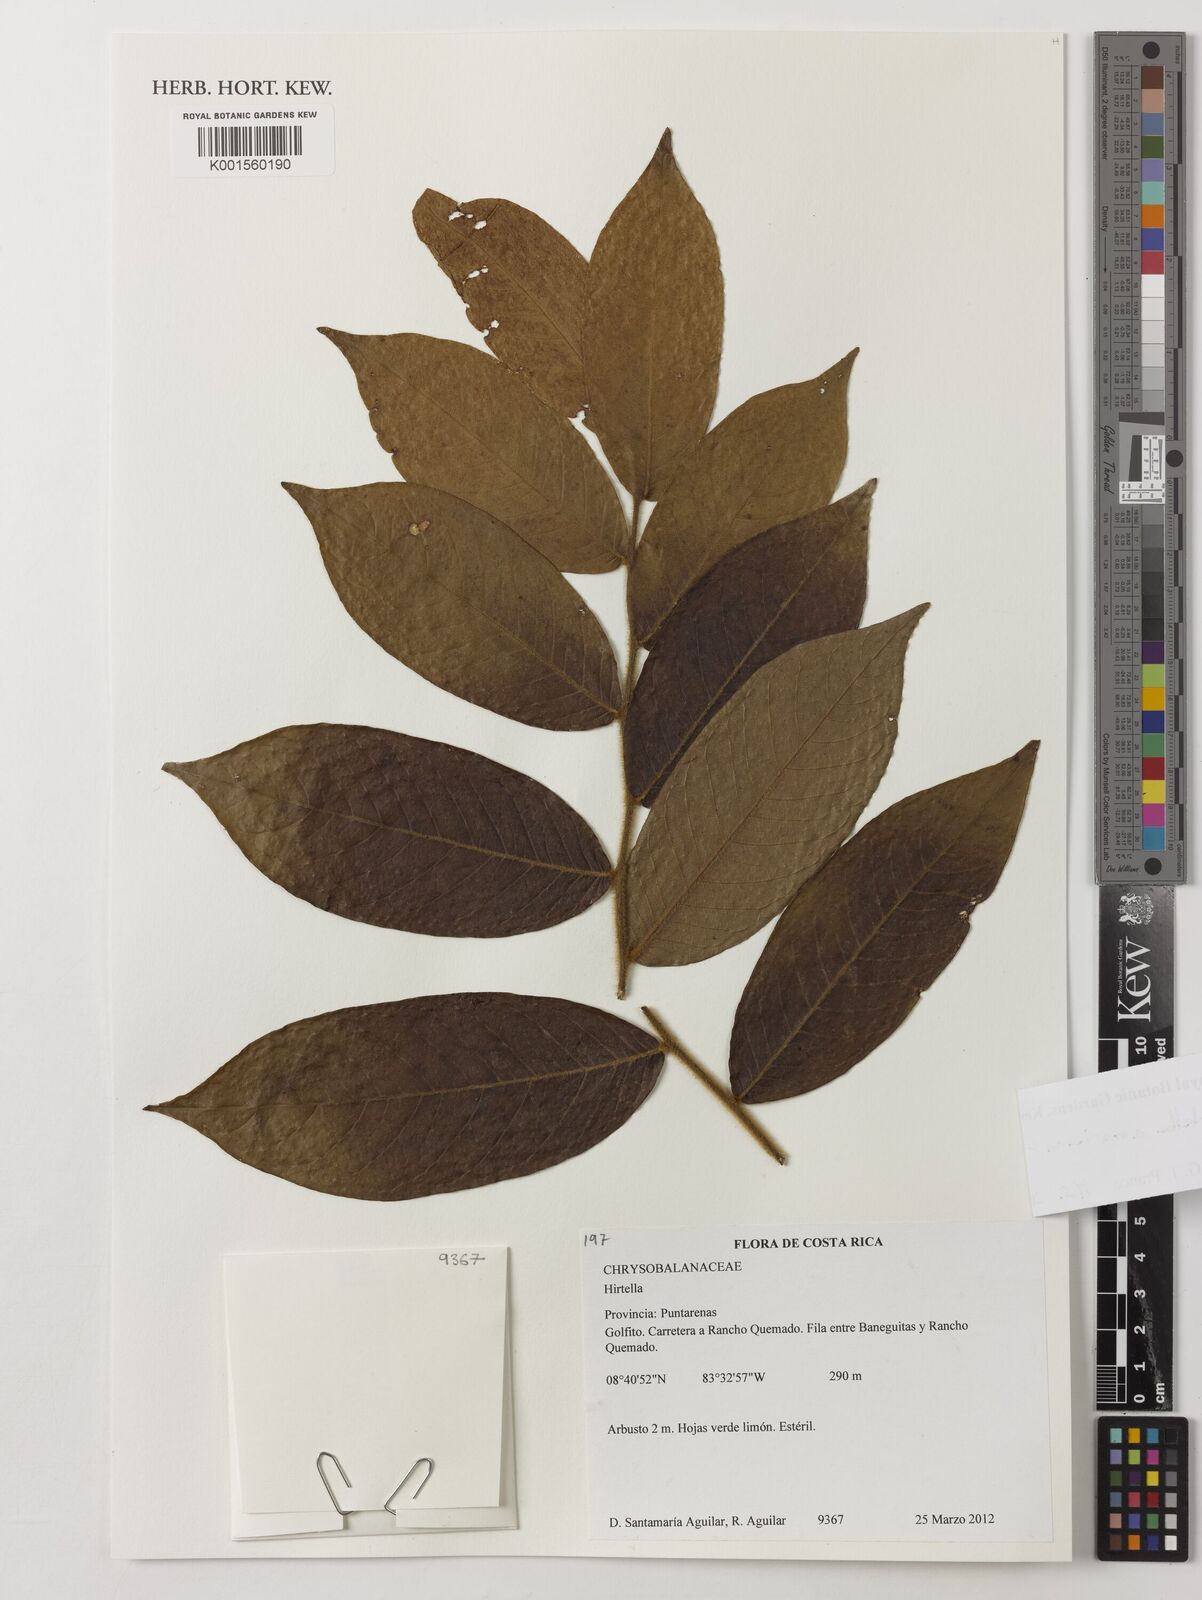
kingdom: Plantae
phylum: Tracheophyta
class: Magnoliopsida
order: Malpighiales
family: Chrysobalanaceae
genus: Hirtella
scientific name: Hirtella americana
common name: Pigeon-plum
